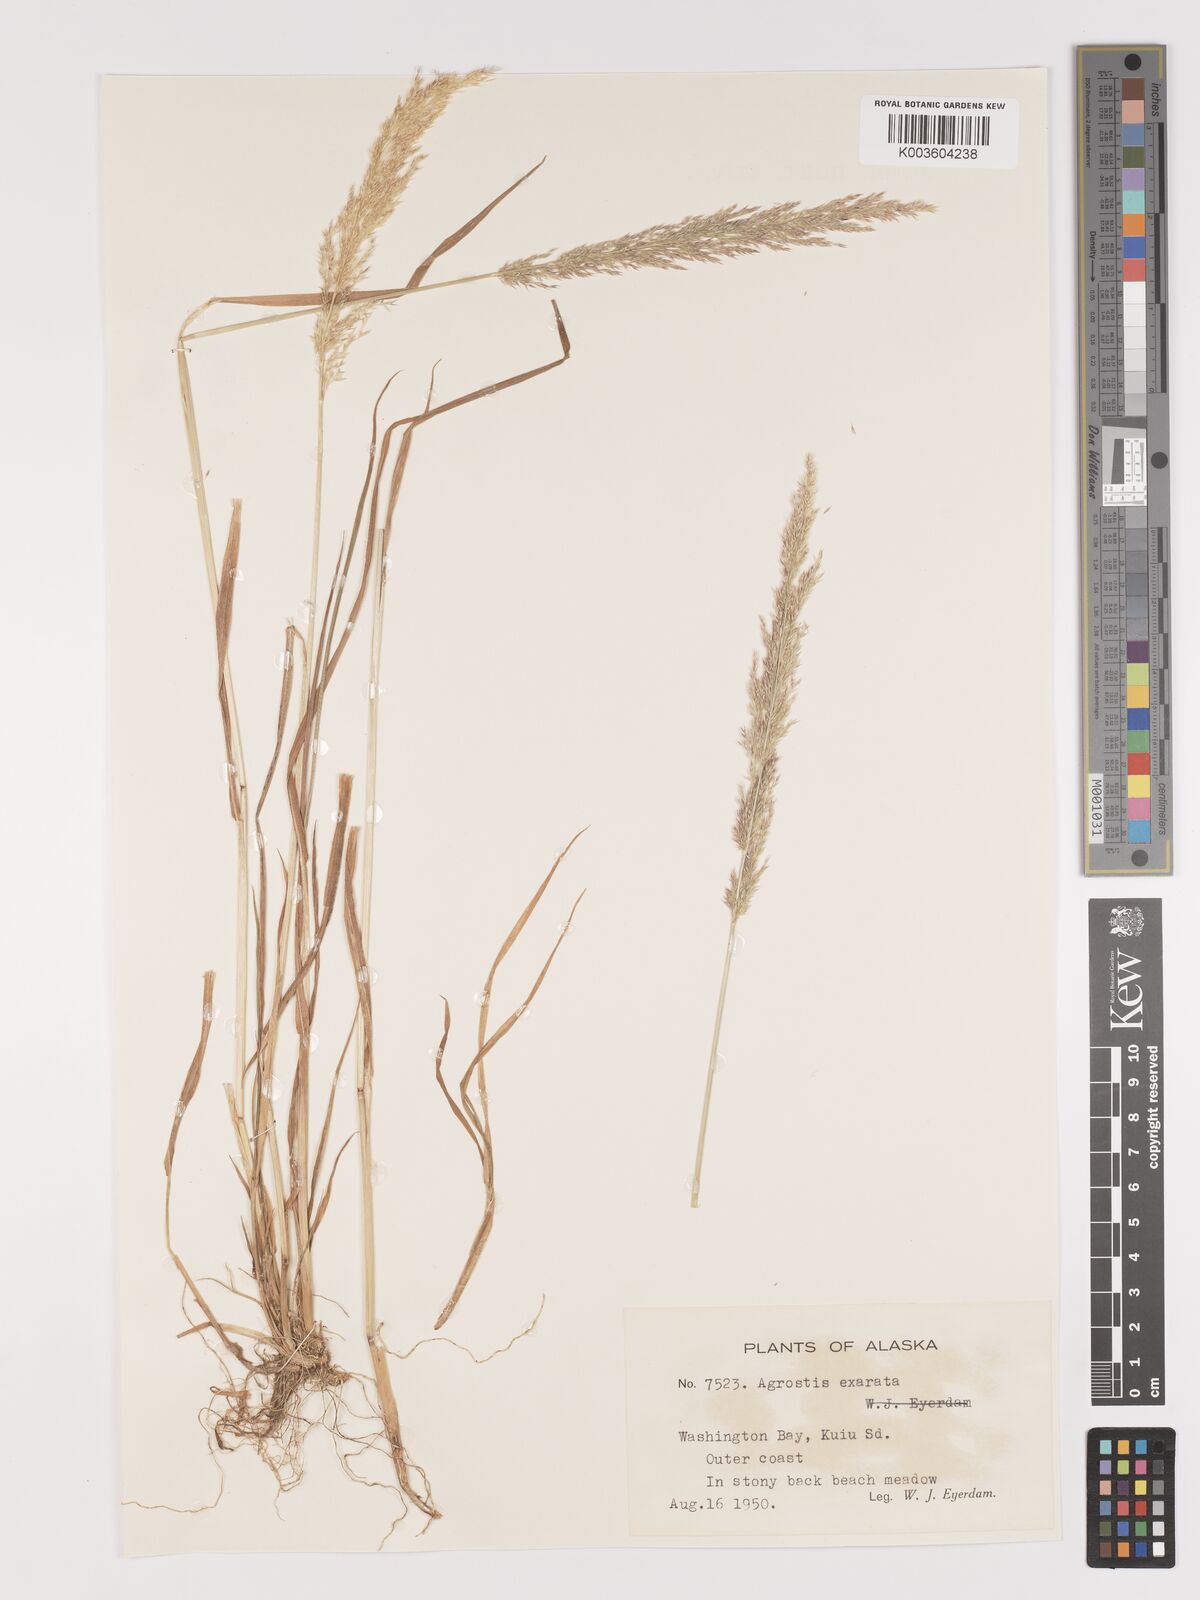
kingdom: Plantae
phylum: Tracheophyta
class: Liliopsida
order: Poales
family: Poaceae
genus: Agrostis
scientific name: Agrostis exarata
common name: Spike bent
